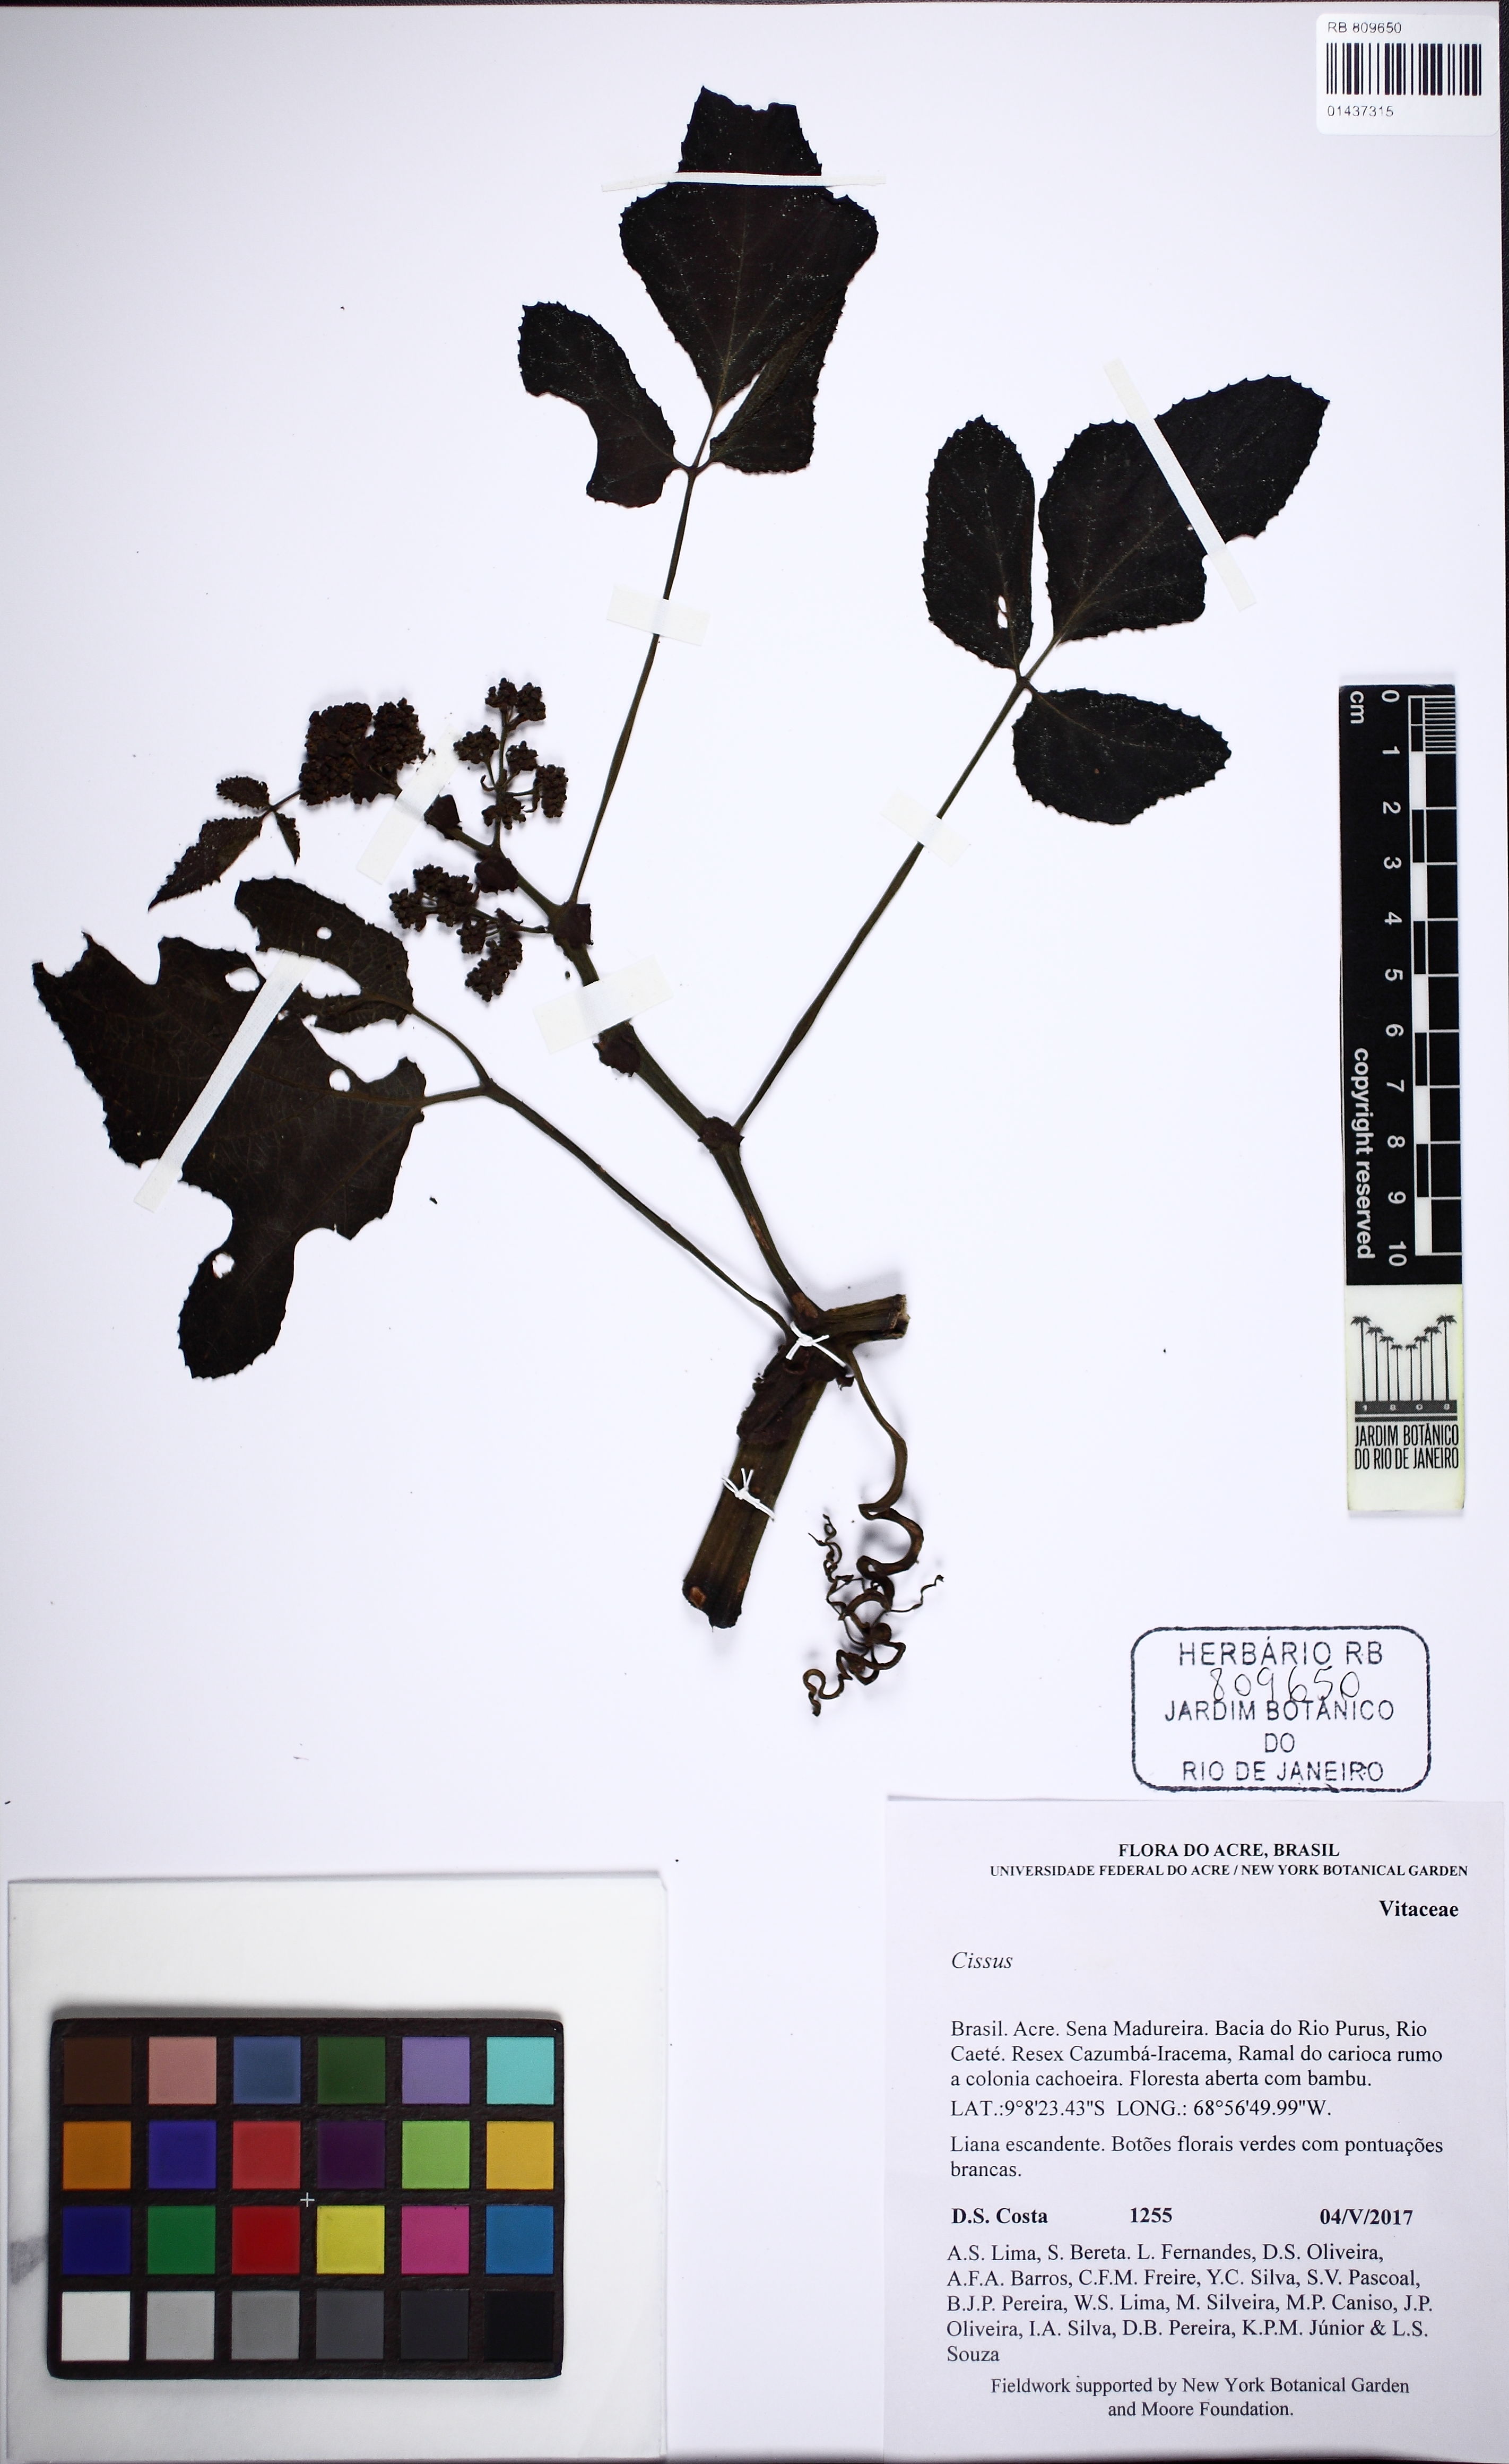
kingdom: Plantae
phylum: Tracheophyta
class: Magnoliopsida
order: Vitales
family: Vitaceae
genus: Cissus
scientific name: Cissus
